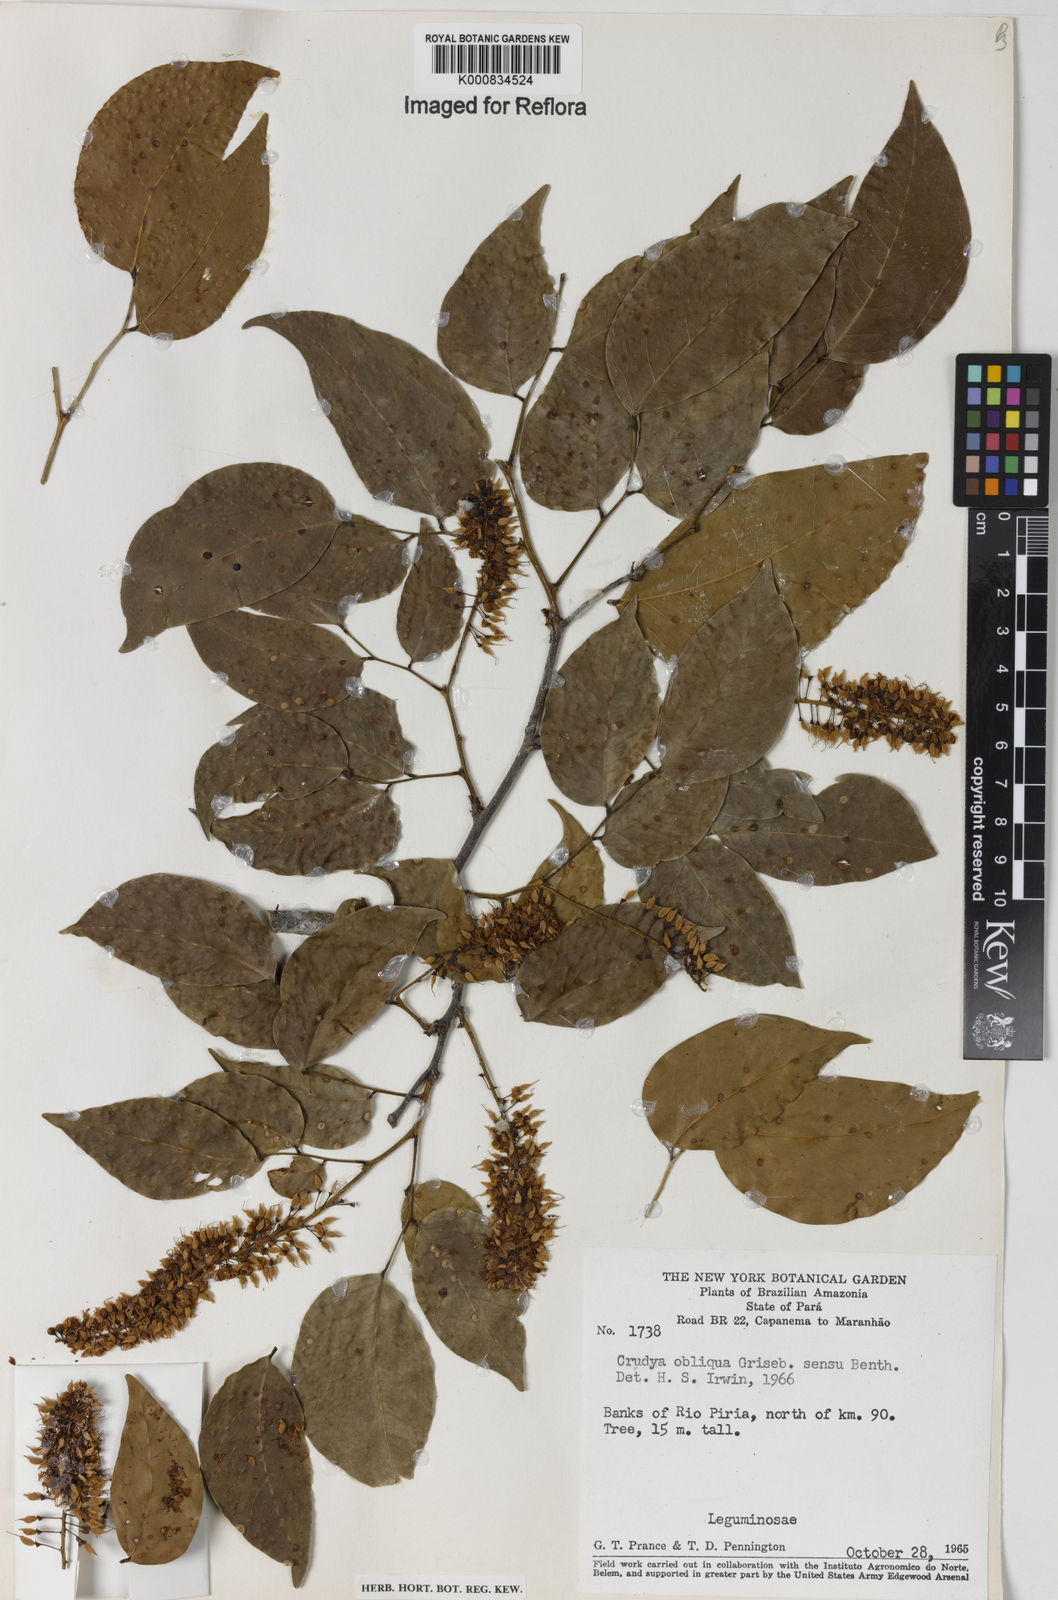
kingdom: Plantae
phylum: Tracheophyta
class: Magnoliopsida
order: Fabales
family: Fabaceae
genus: Crudia
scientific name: Crudia glaberrima
